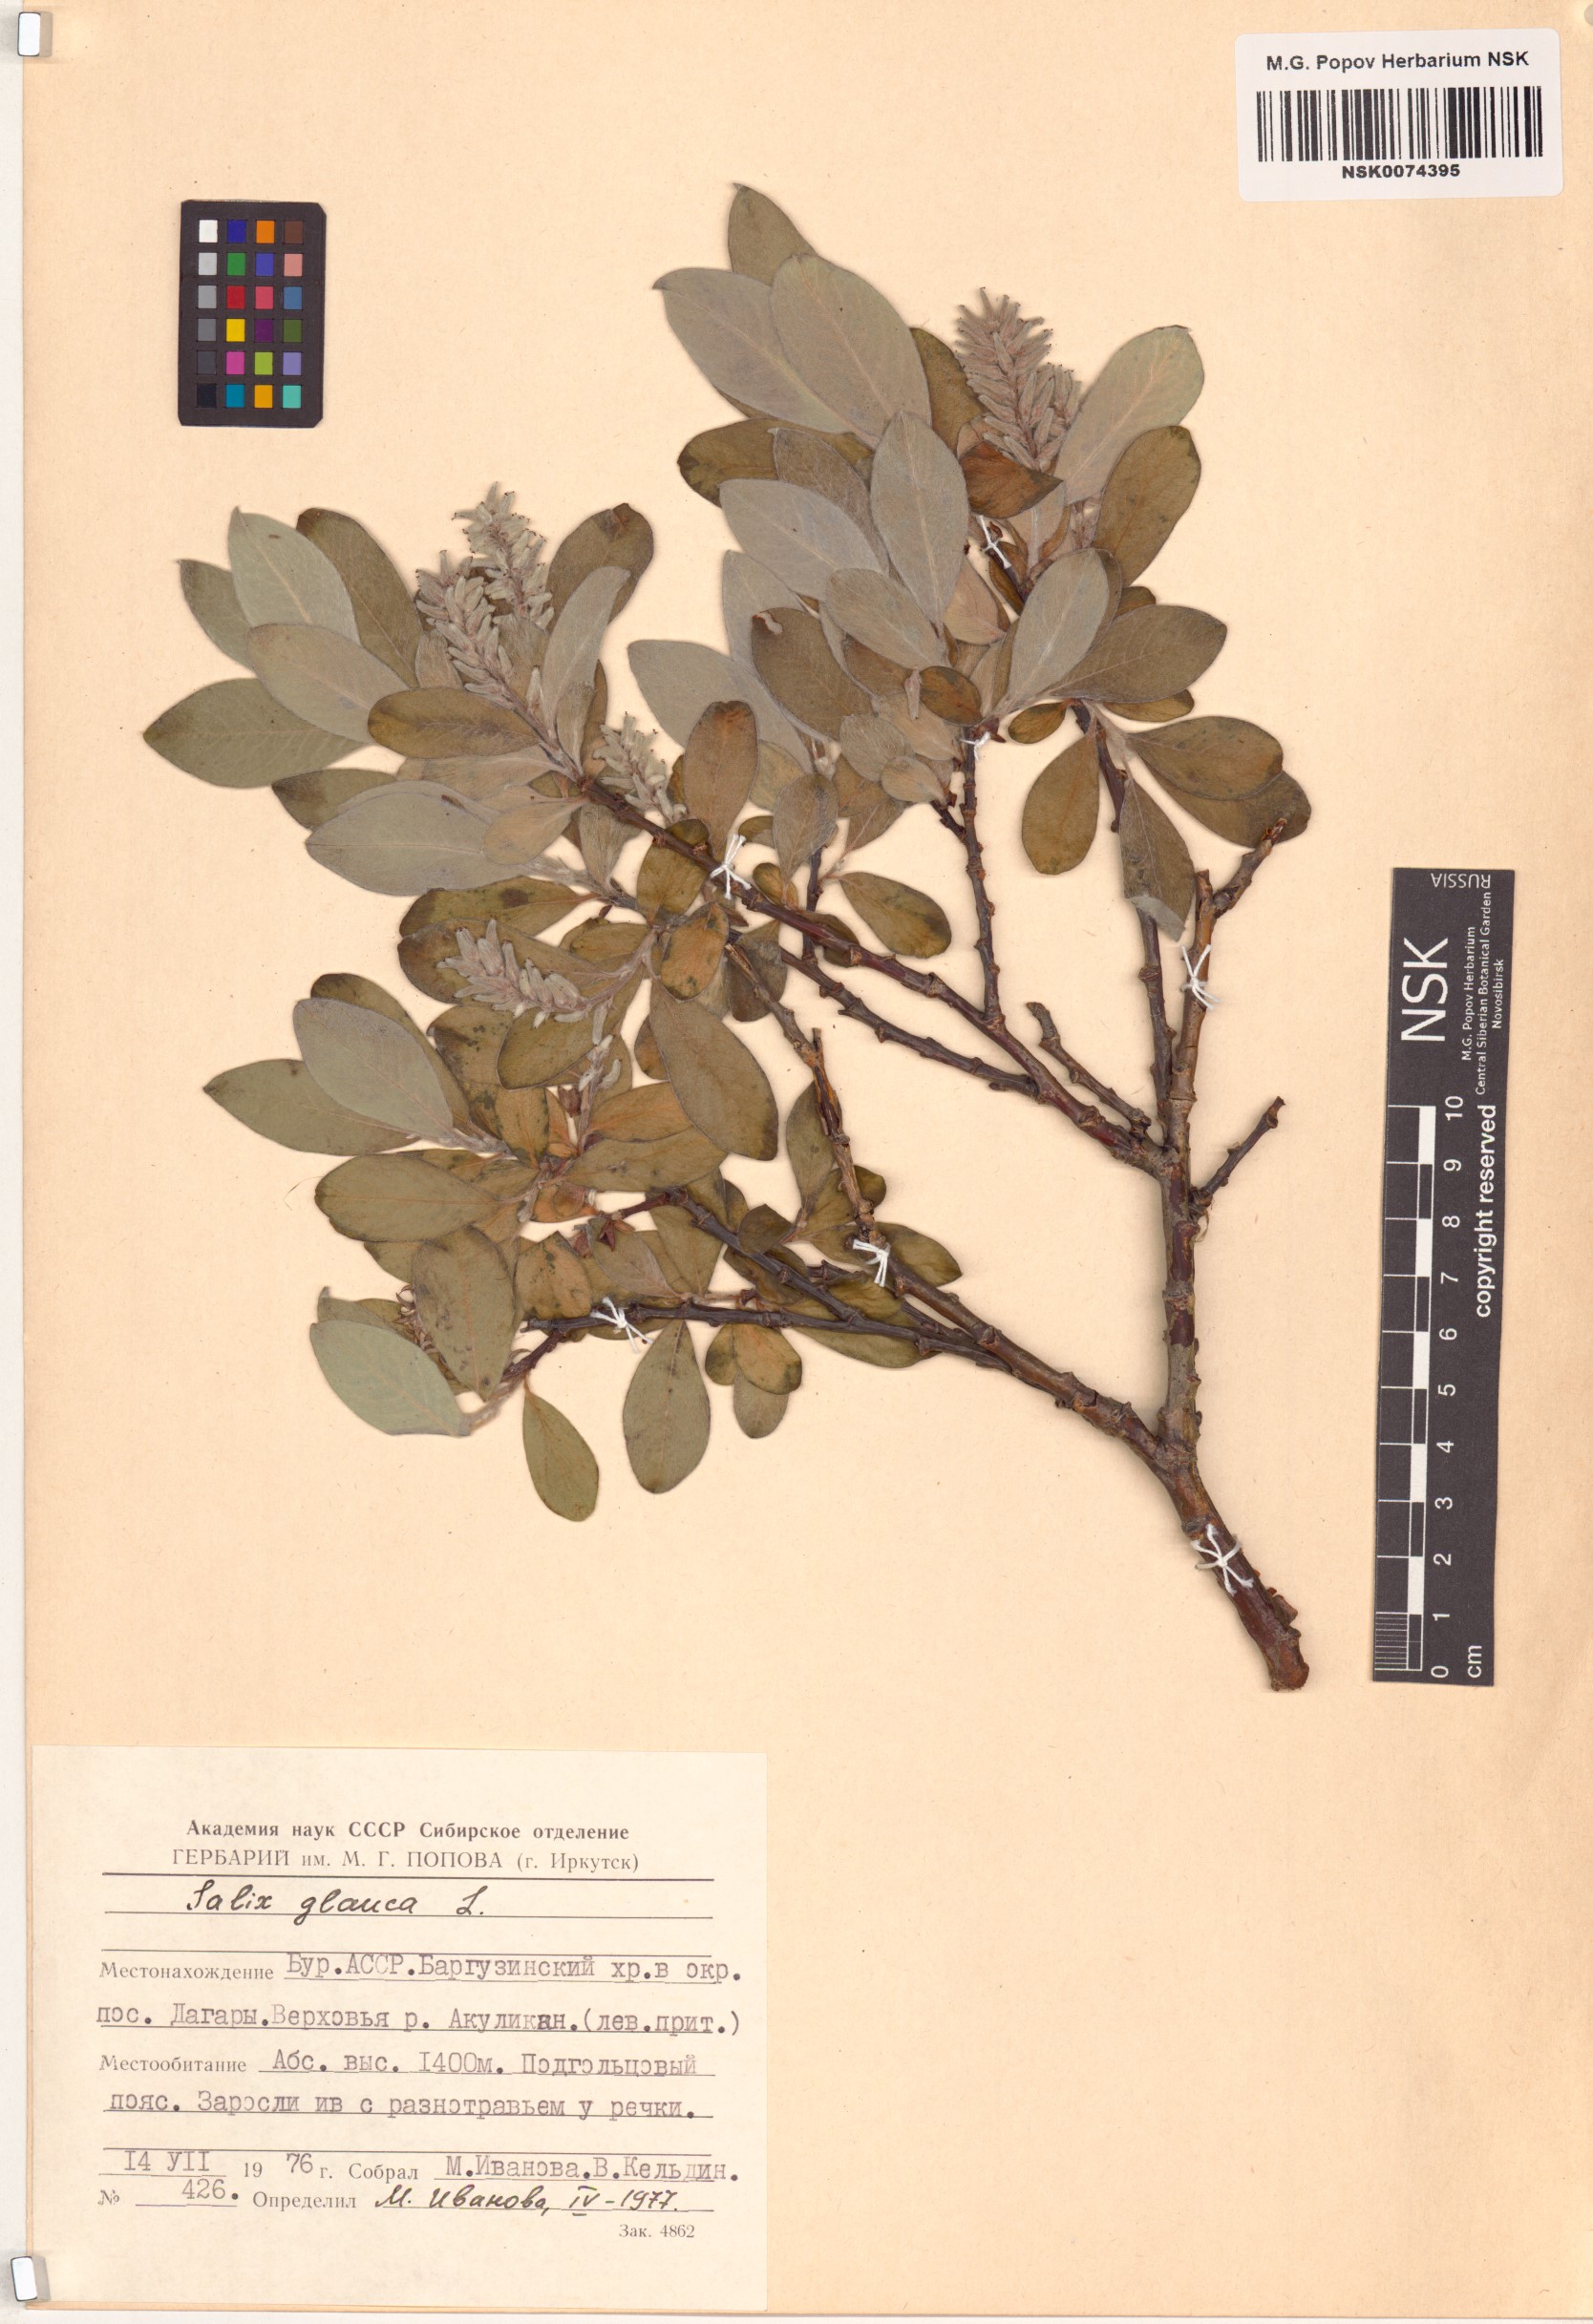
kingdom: Plantae
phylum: Tracheophyta
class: Magnoliopsida
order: Malpighiales
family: Salicaceae
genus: Salix
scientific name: Salix glauca
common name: Glaucous willow
